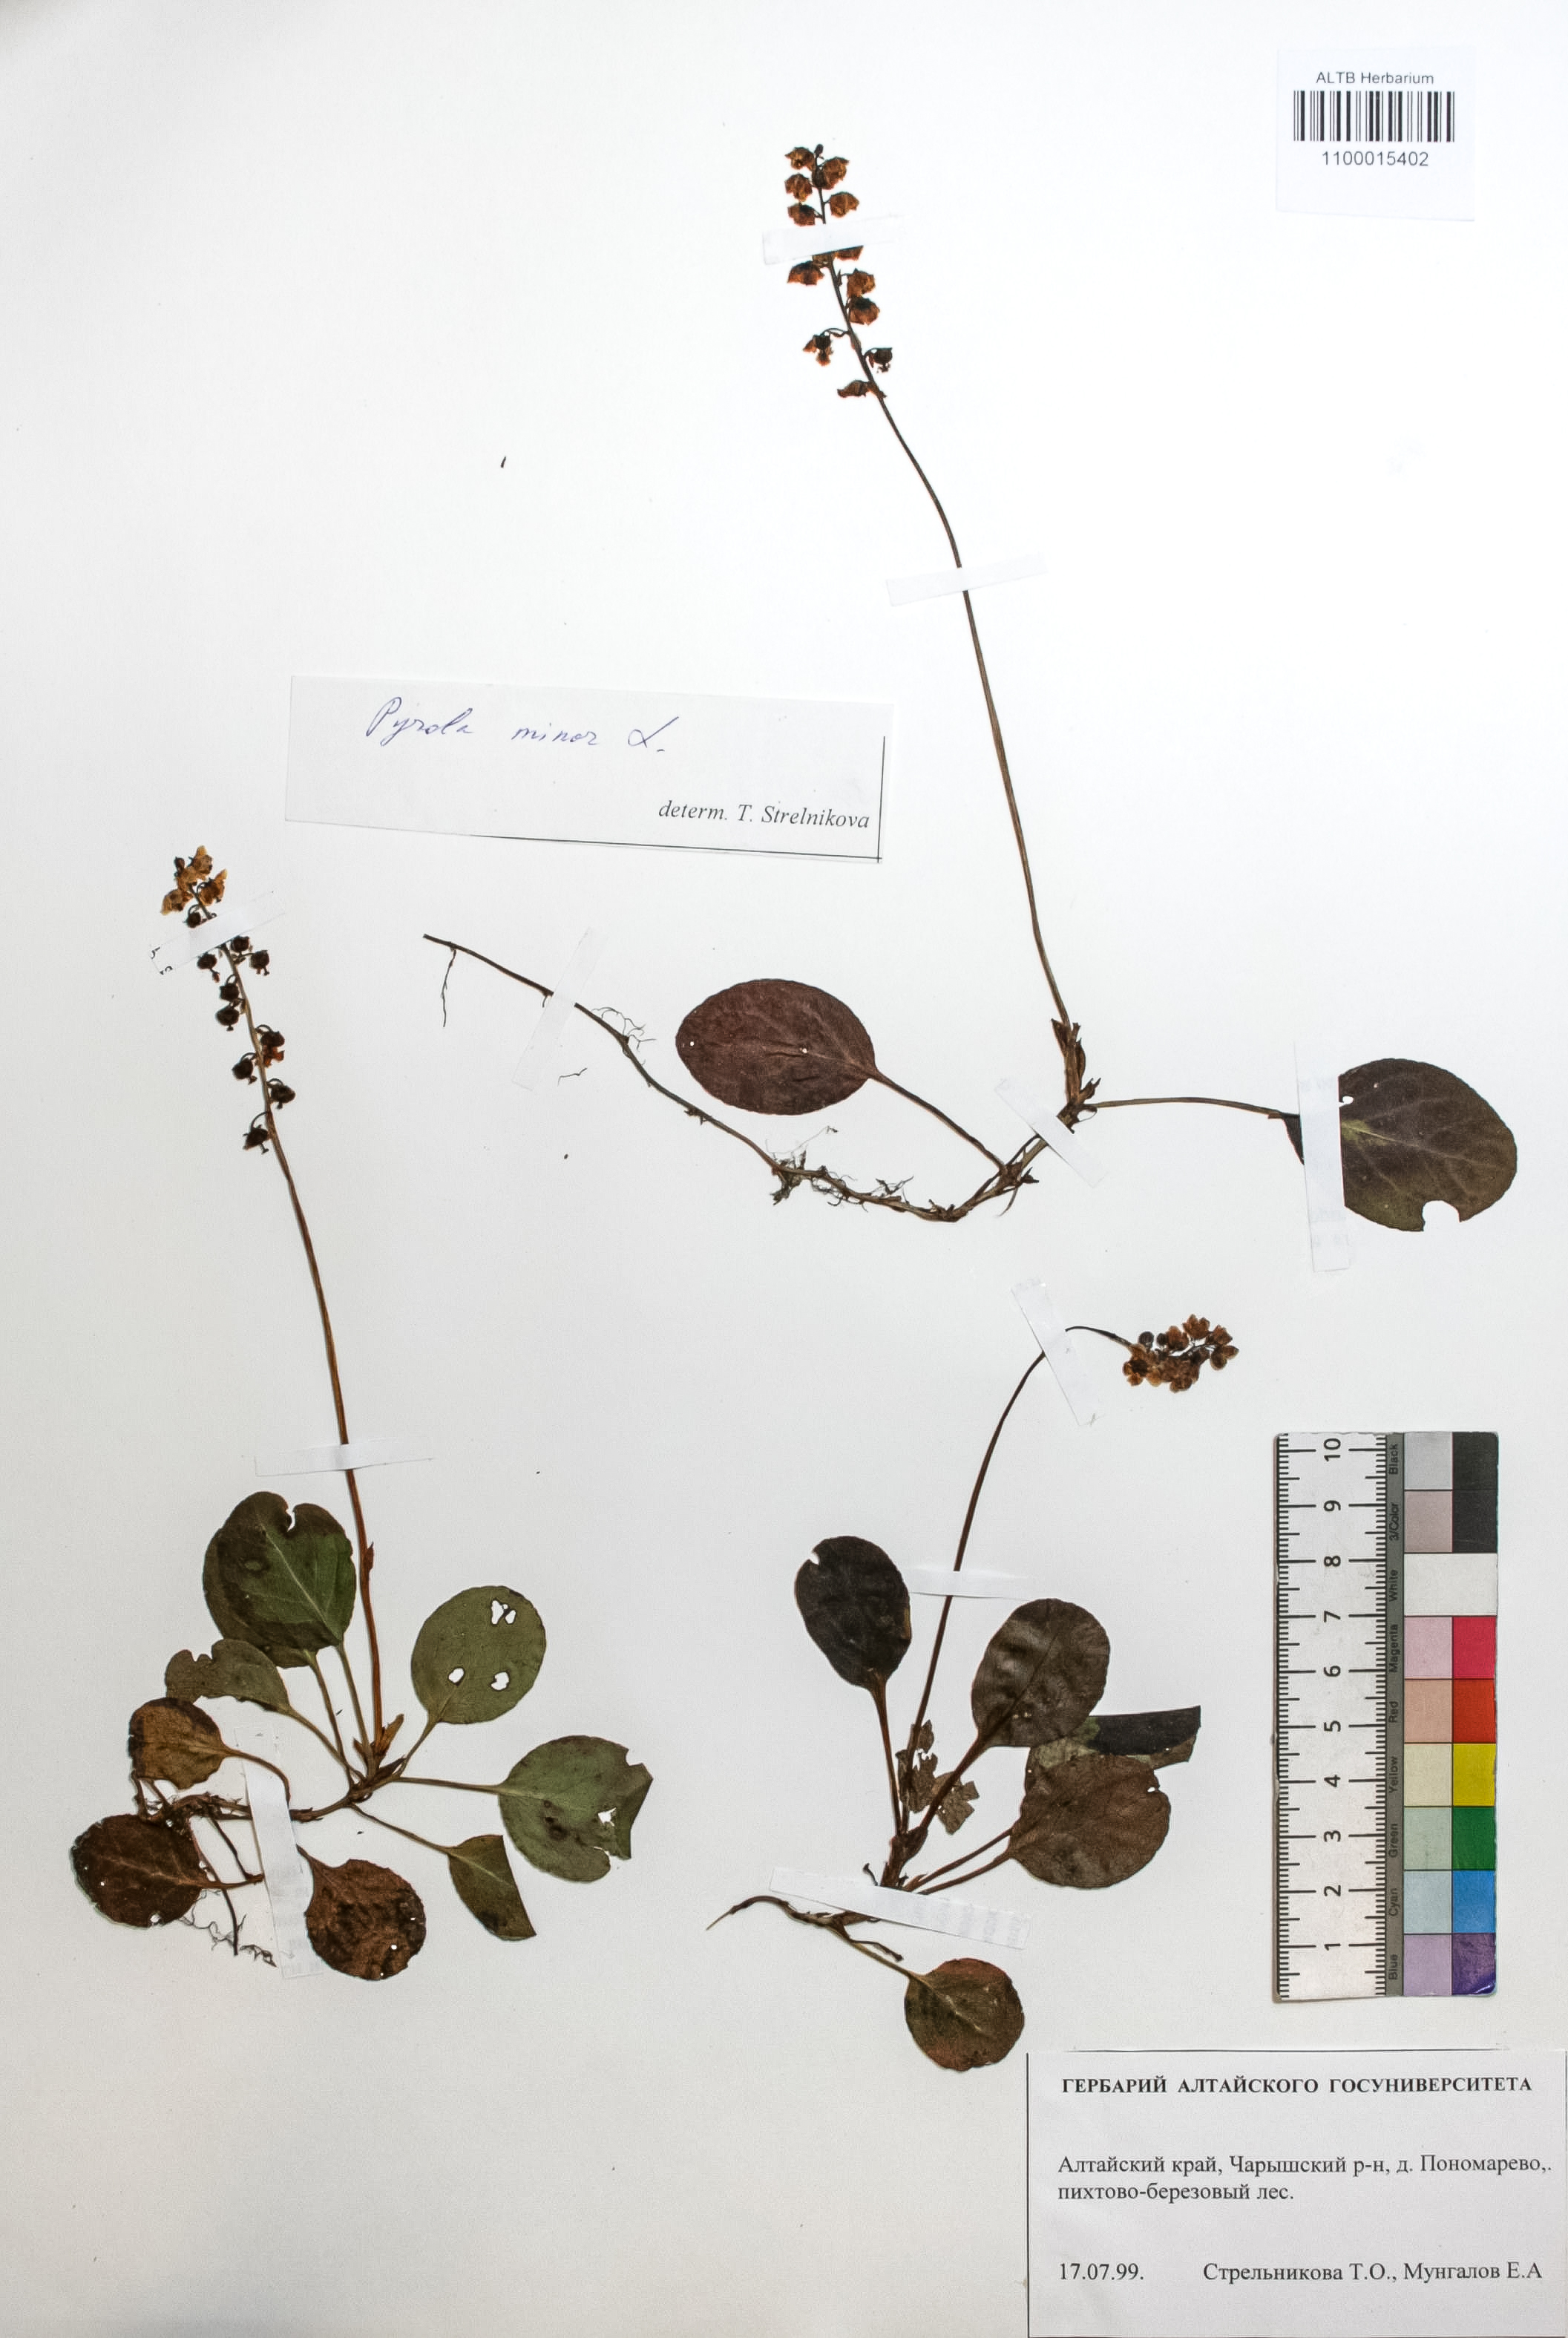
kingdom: Plantae
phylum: Tracheophyta
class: Magnoliopsida
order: Ericales
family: Ericaceae
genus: Pyrola
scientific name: Pyrola minor
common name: Common wintergreen
